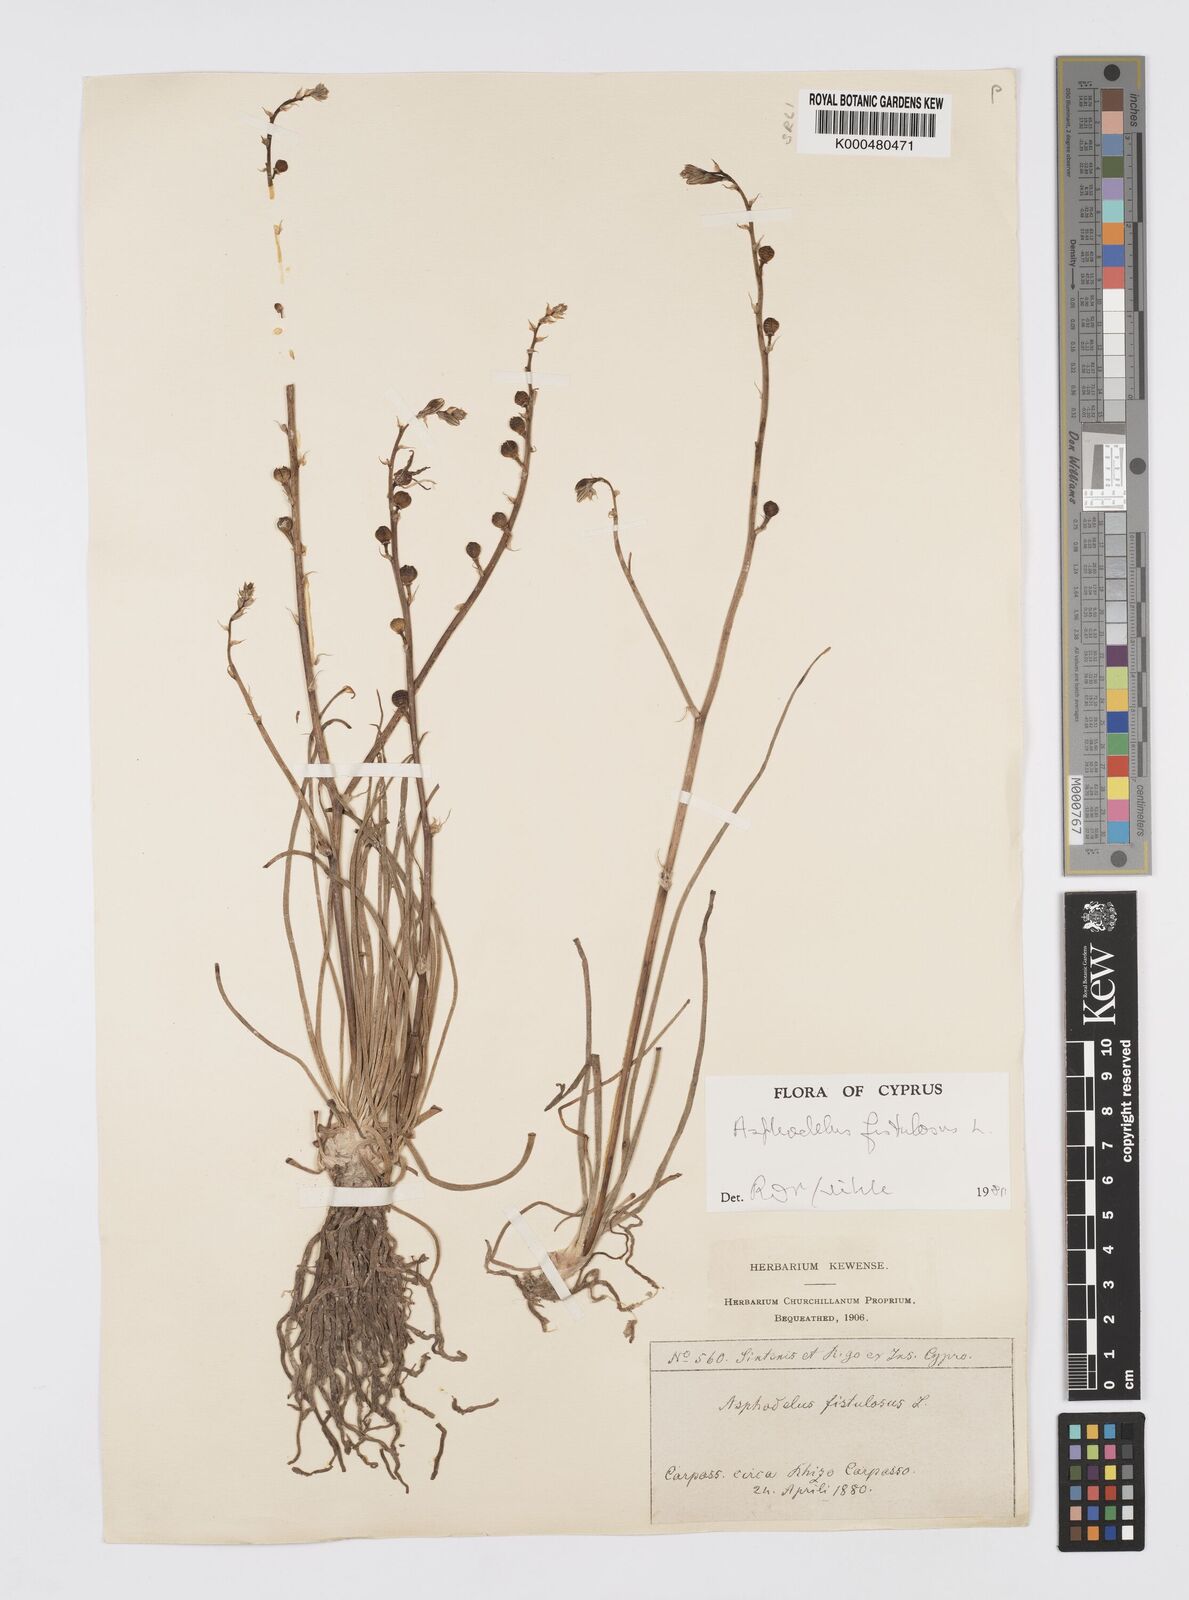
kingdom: Plantae
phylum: Tracheophyta
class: Liliopsida
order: Asparagales
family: Asphodelaceae
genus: Asphodelus
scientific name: Asphodelus fistulosus
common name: Onionweed
